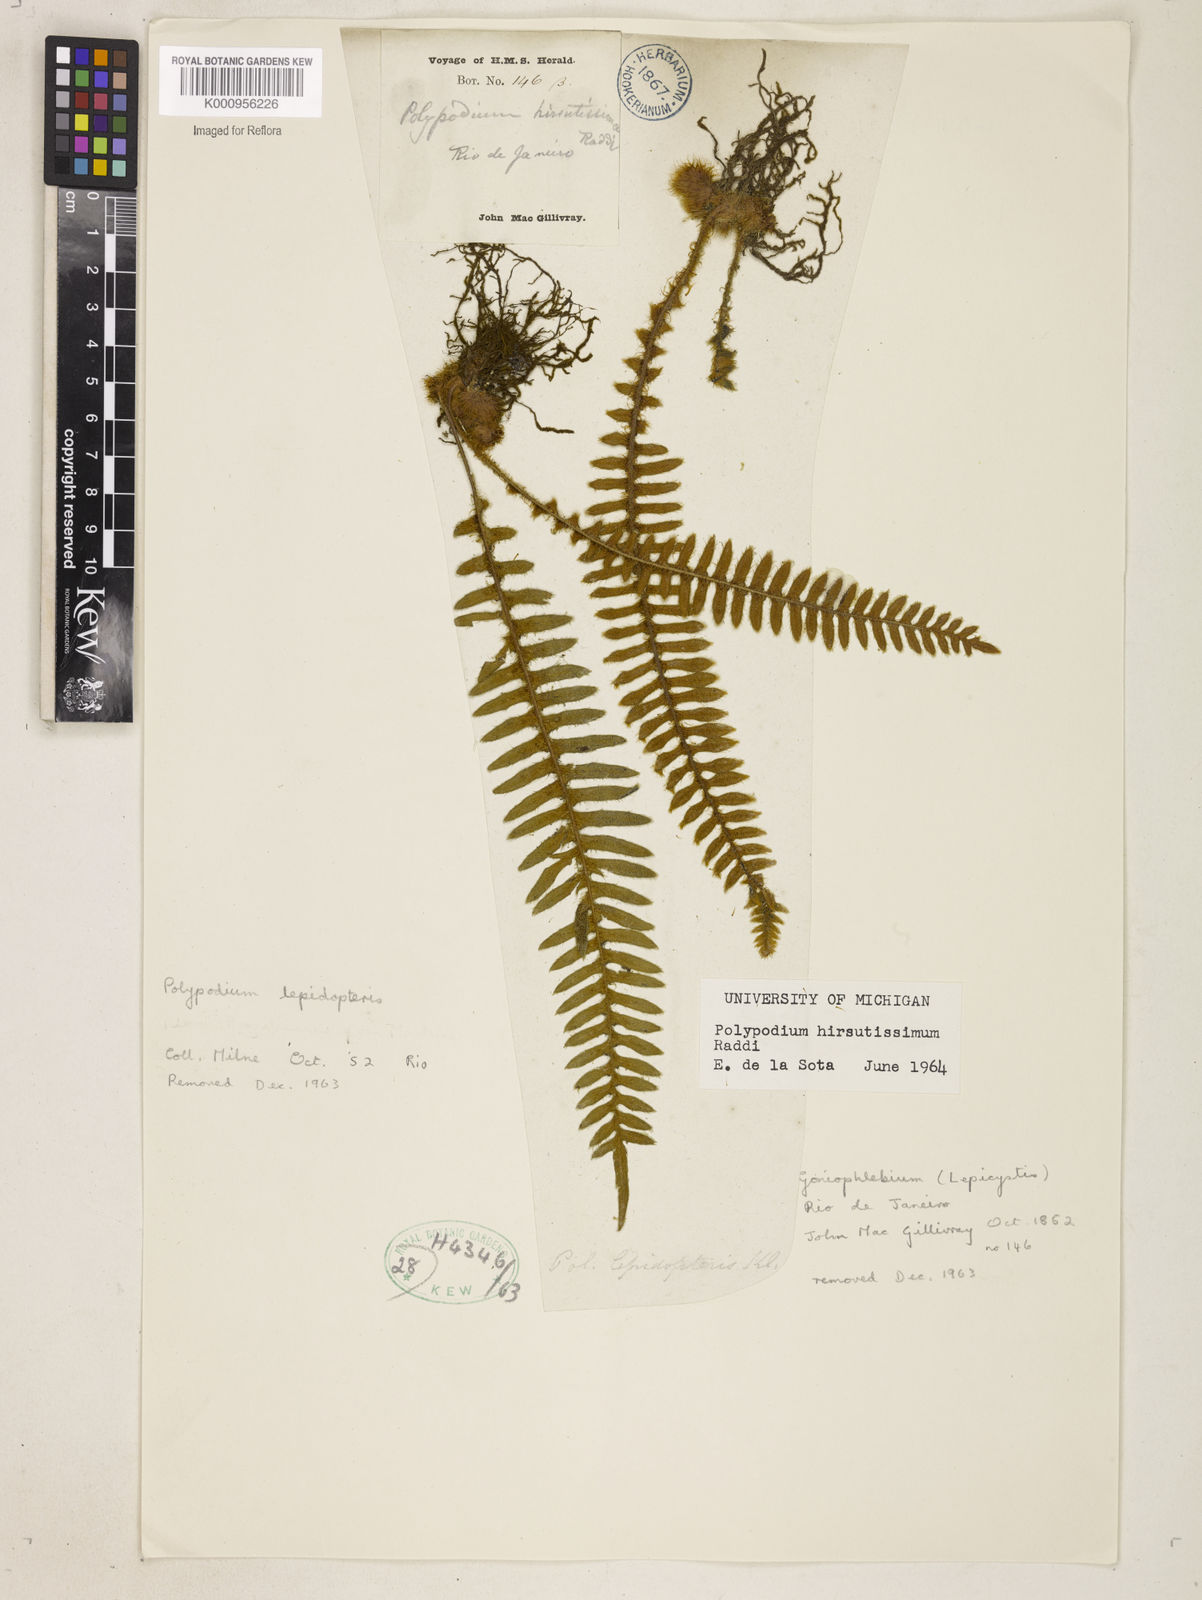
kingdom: Plantae
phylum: Tracheophyta
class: Polypodiopsida
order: Polypodiales
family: Polypodiaceae
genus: Pleopeltis
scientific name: Pleopeltis hirsutissima
